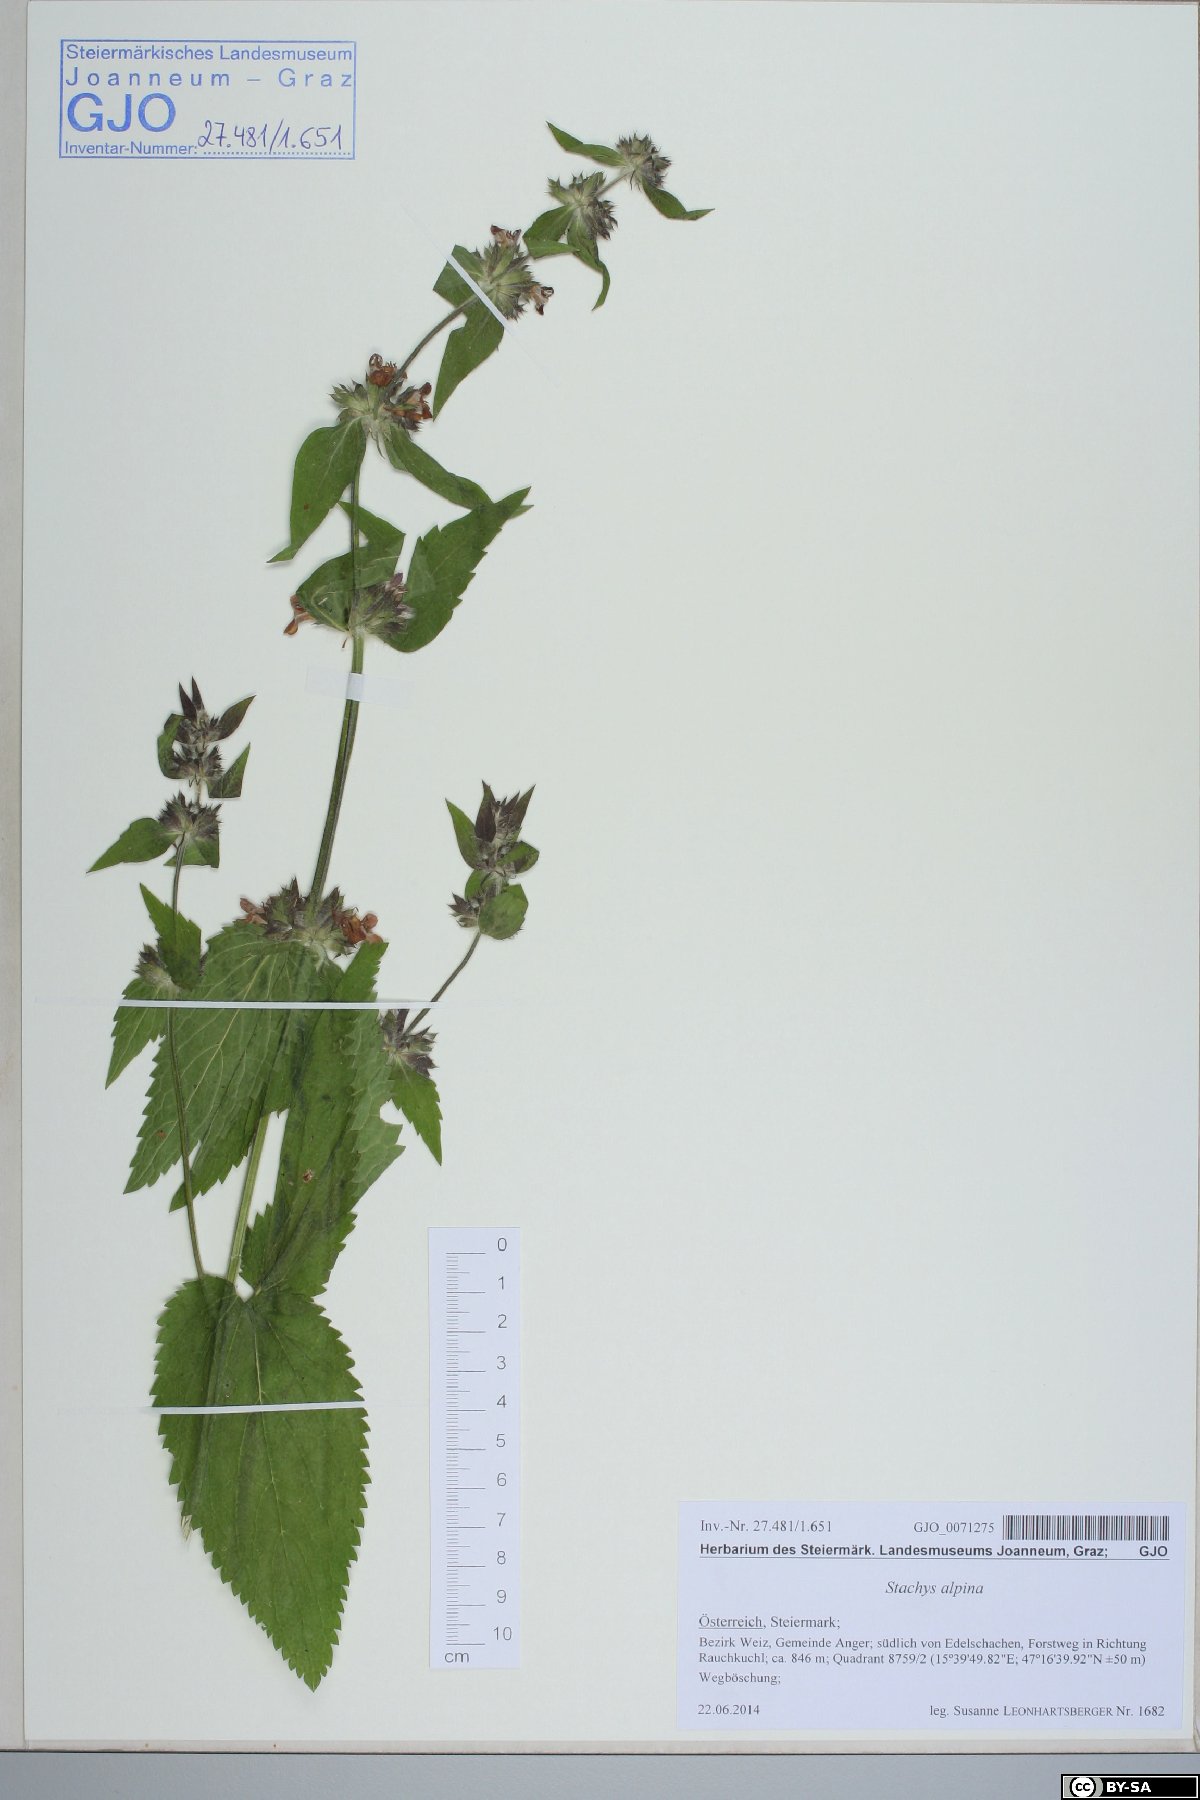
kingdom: Plantae
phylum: Tracheophyta
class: Magnoliopsida
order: Lamiales
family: Lamiaceae
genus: Stachys
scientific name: Stachys alpina
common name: Limestone woundwort
